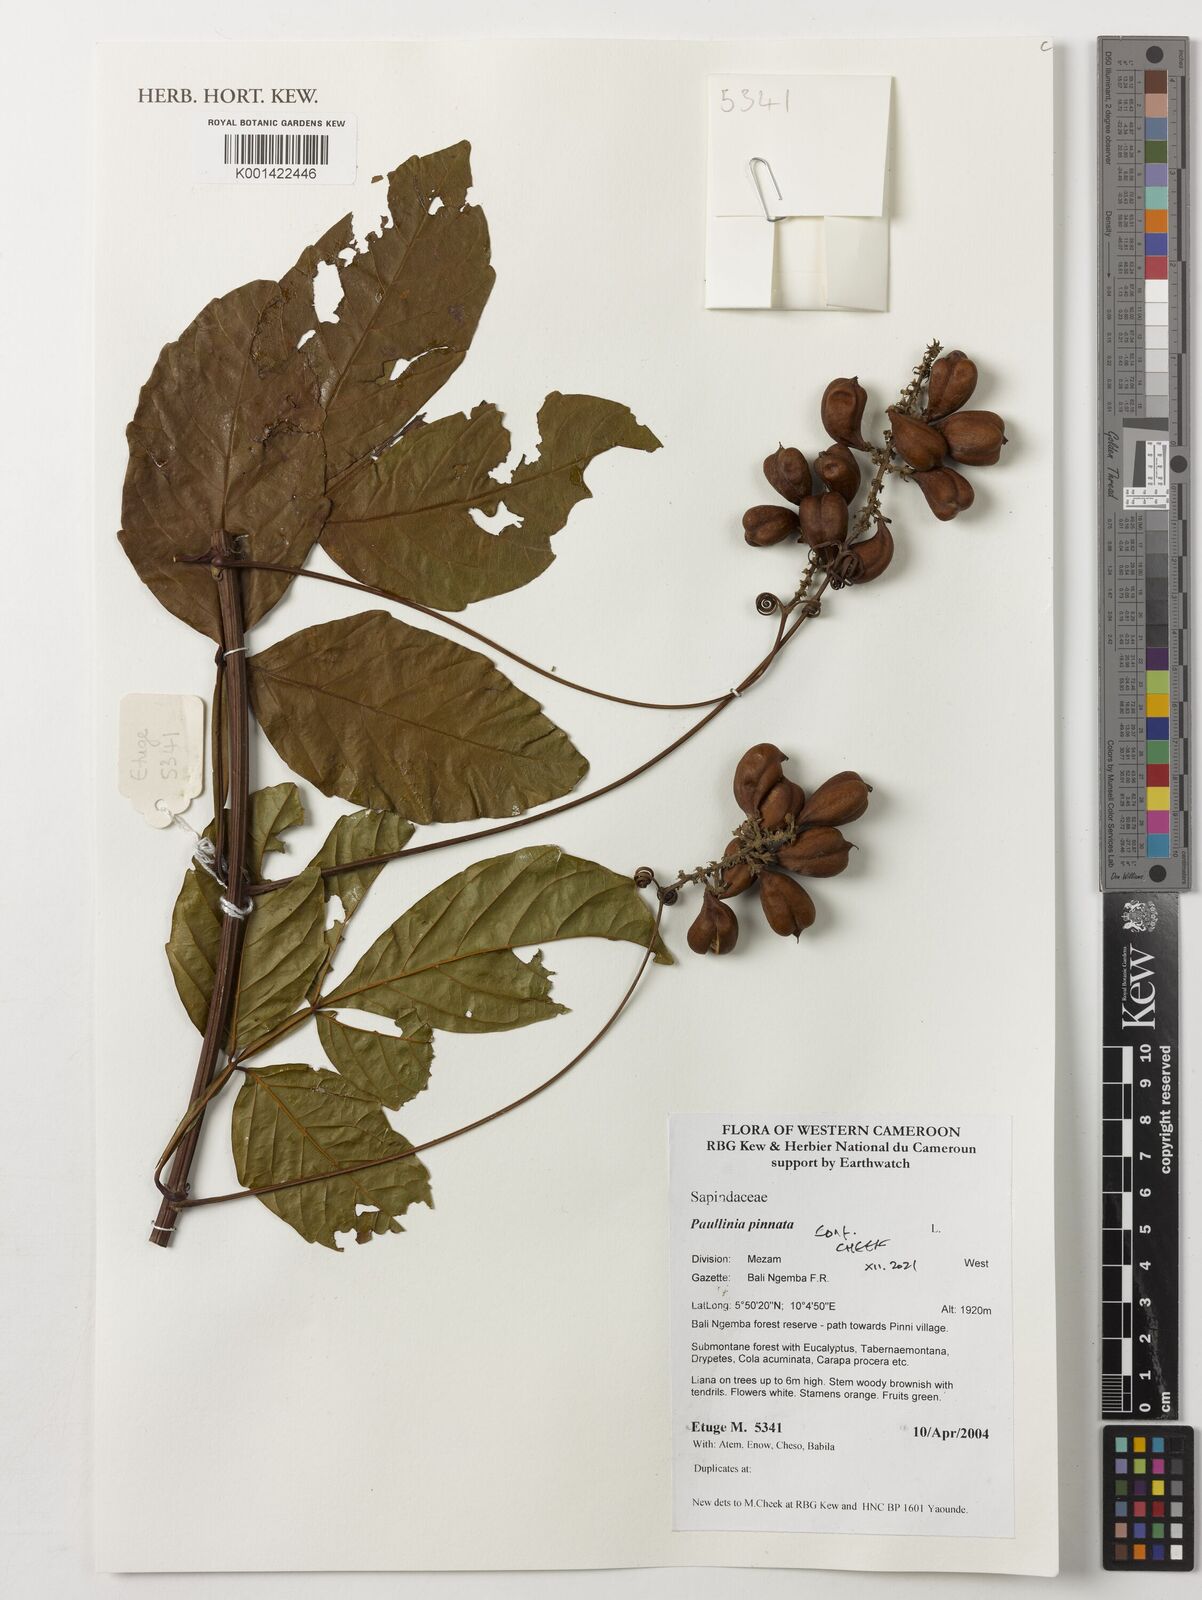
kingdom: Plantae
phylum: Tracheophyta
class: Magnoliopsida
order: Sapindales
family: Sapindaceae
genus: Paullinia
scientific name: Paullinia pinnata
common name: Barbasco
